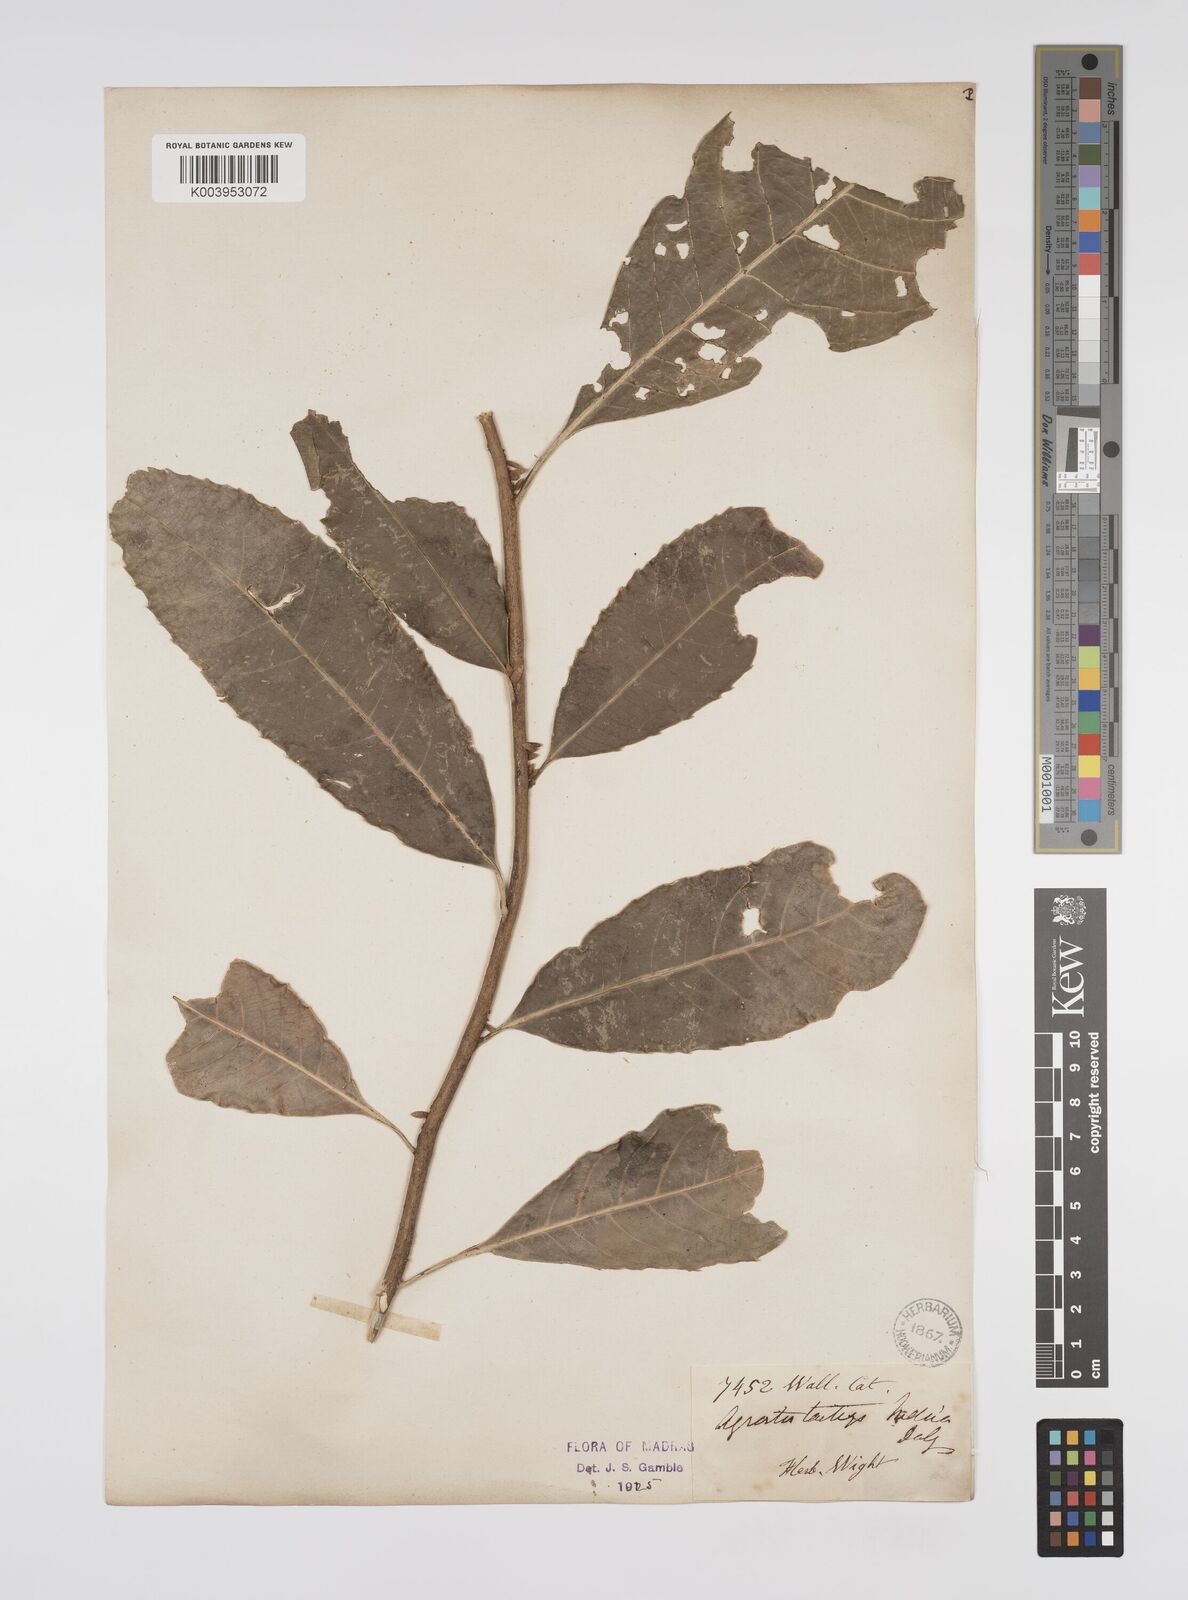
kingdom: Plantae
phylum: Tracheophyta
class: Magnoliopsida
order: Malpighiales
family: Euphorbiaceae
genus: Agrostistachys
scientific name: Agrostistachys indica
